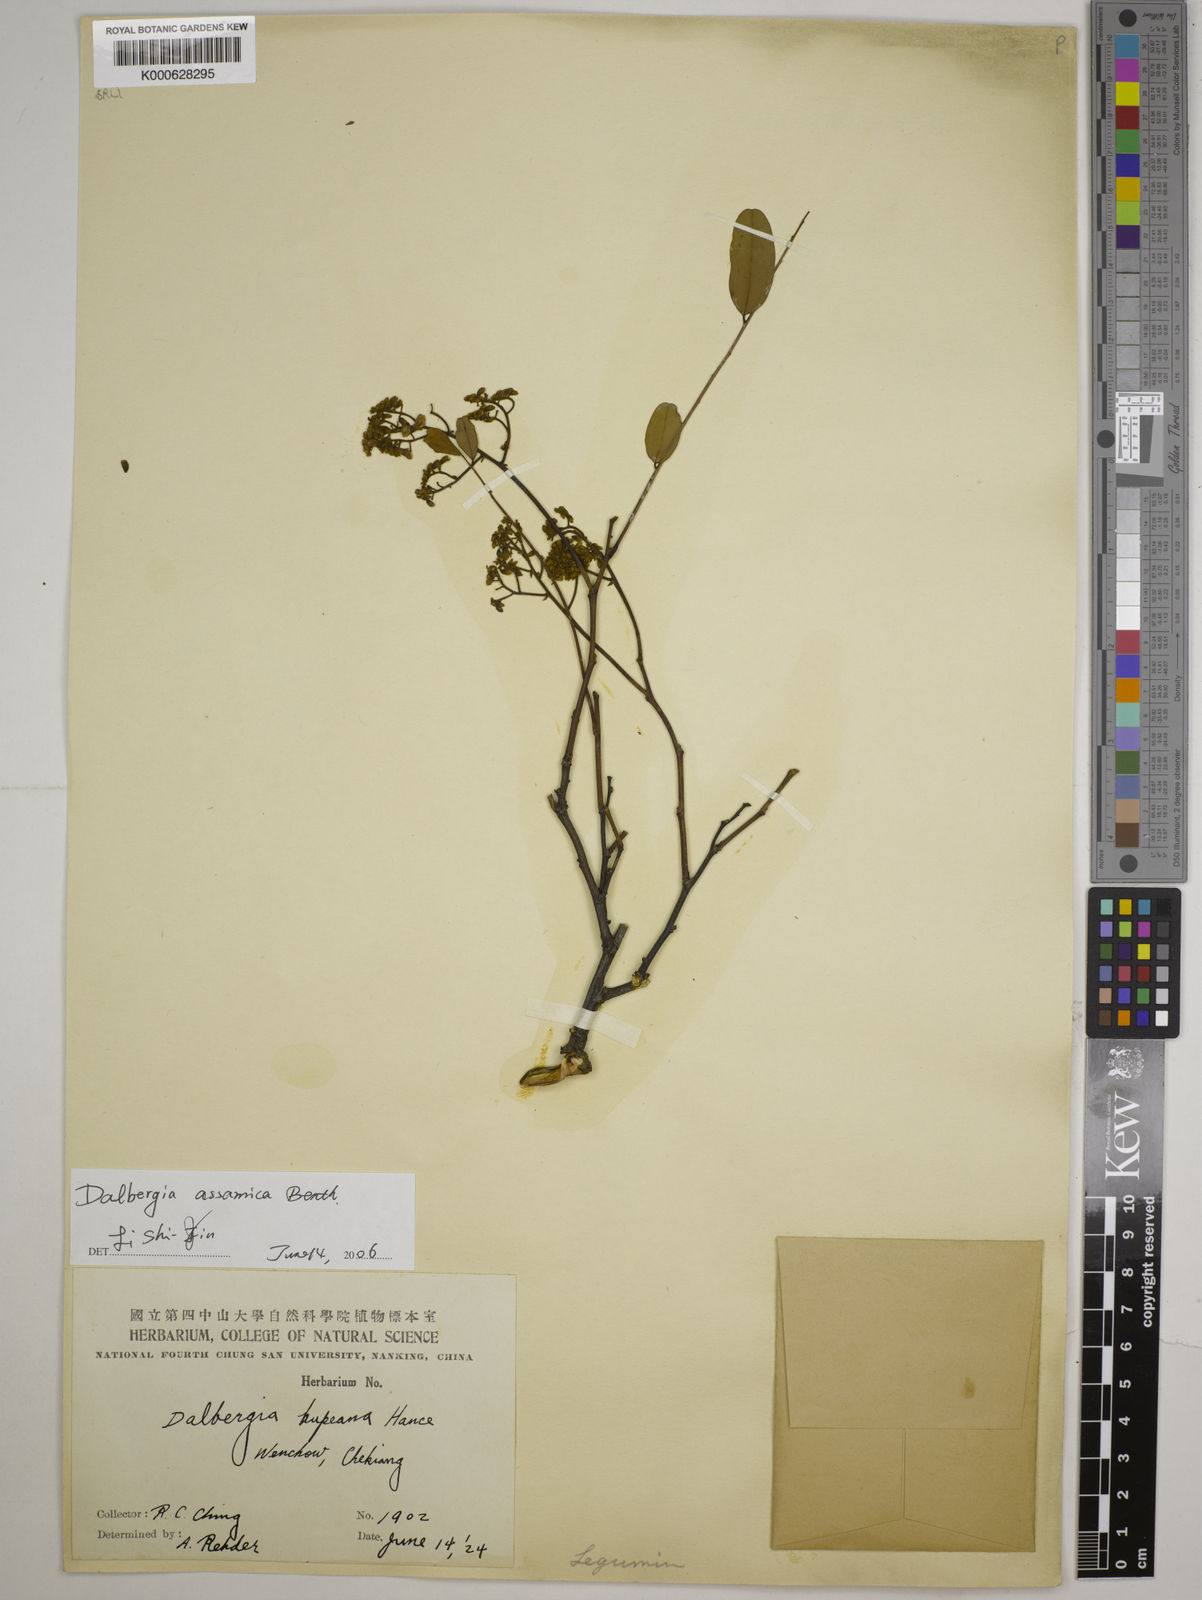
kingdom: Plantae
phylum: Tracheophyta
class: Magnoliopsida
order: Fabales
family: Fabaceae
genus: Dalbergia
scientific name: Dalbergia assamica
